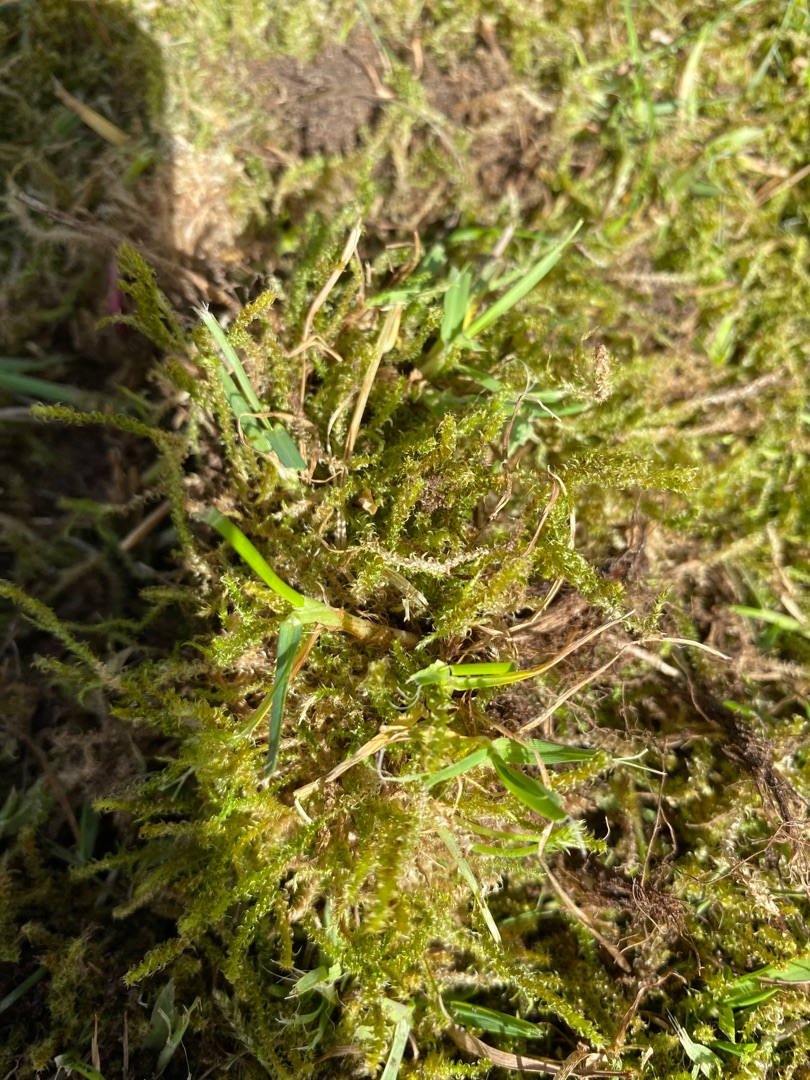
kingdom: Plantae
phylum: Bryophyta
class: Bryopsida
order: Hypnales
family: Hylocomiaceae
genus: Rhytidiadelphus
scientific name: Rhytidiadelphus squarrosus
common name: Plæne-kransemos
